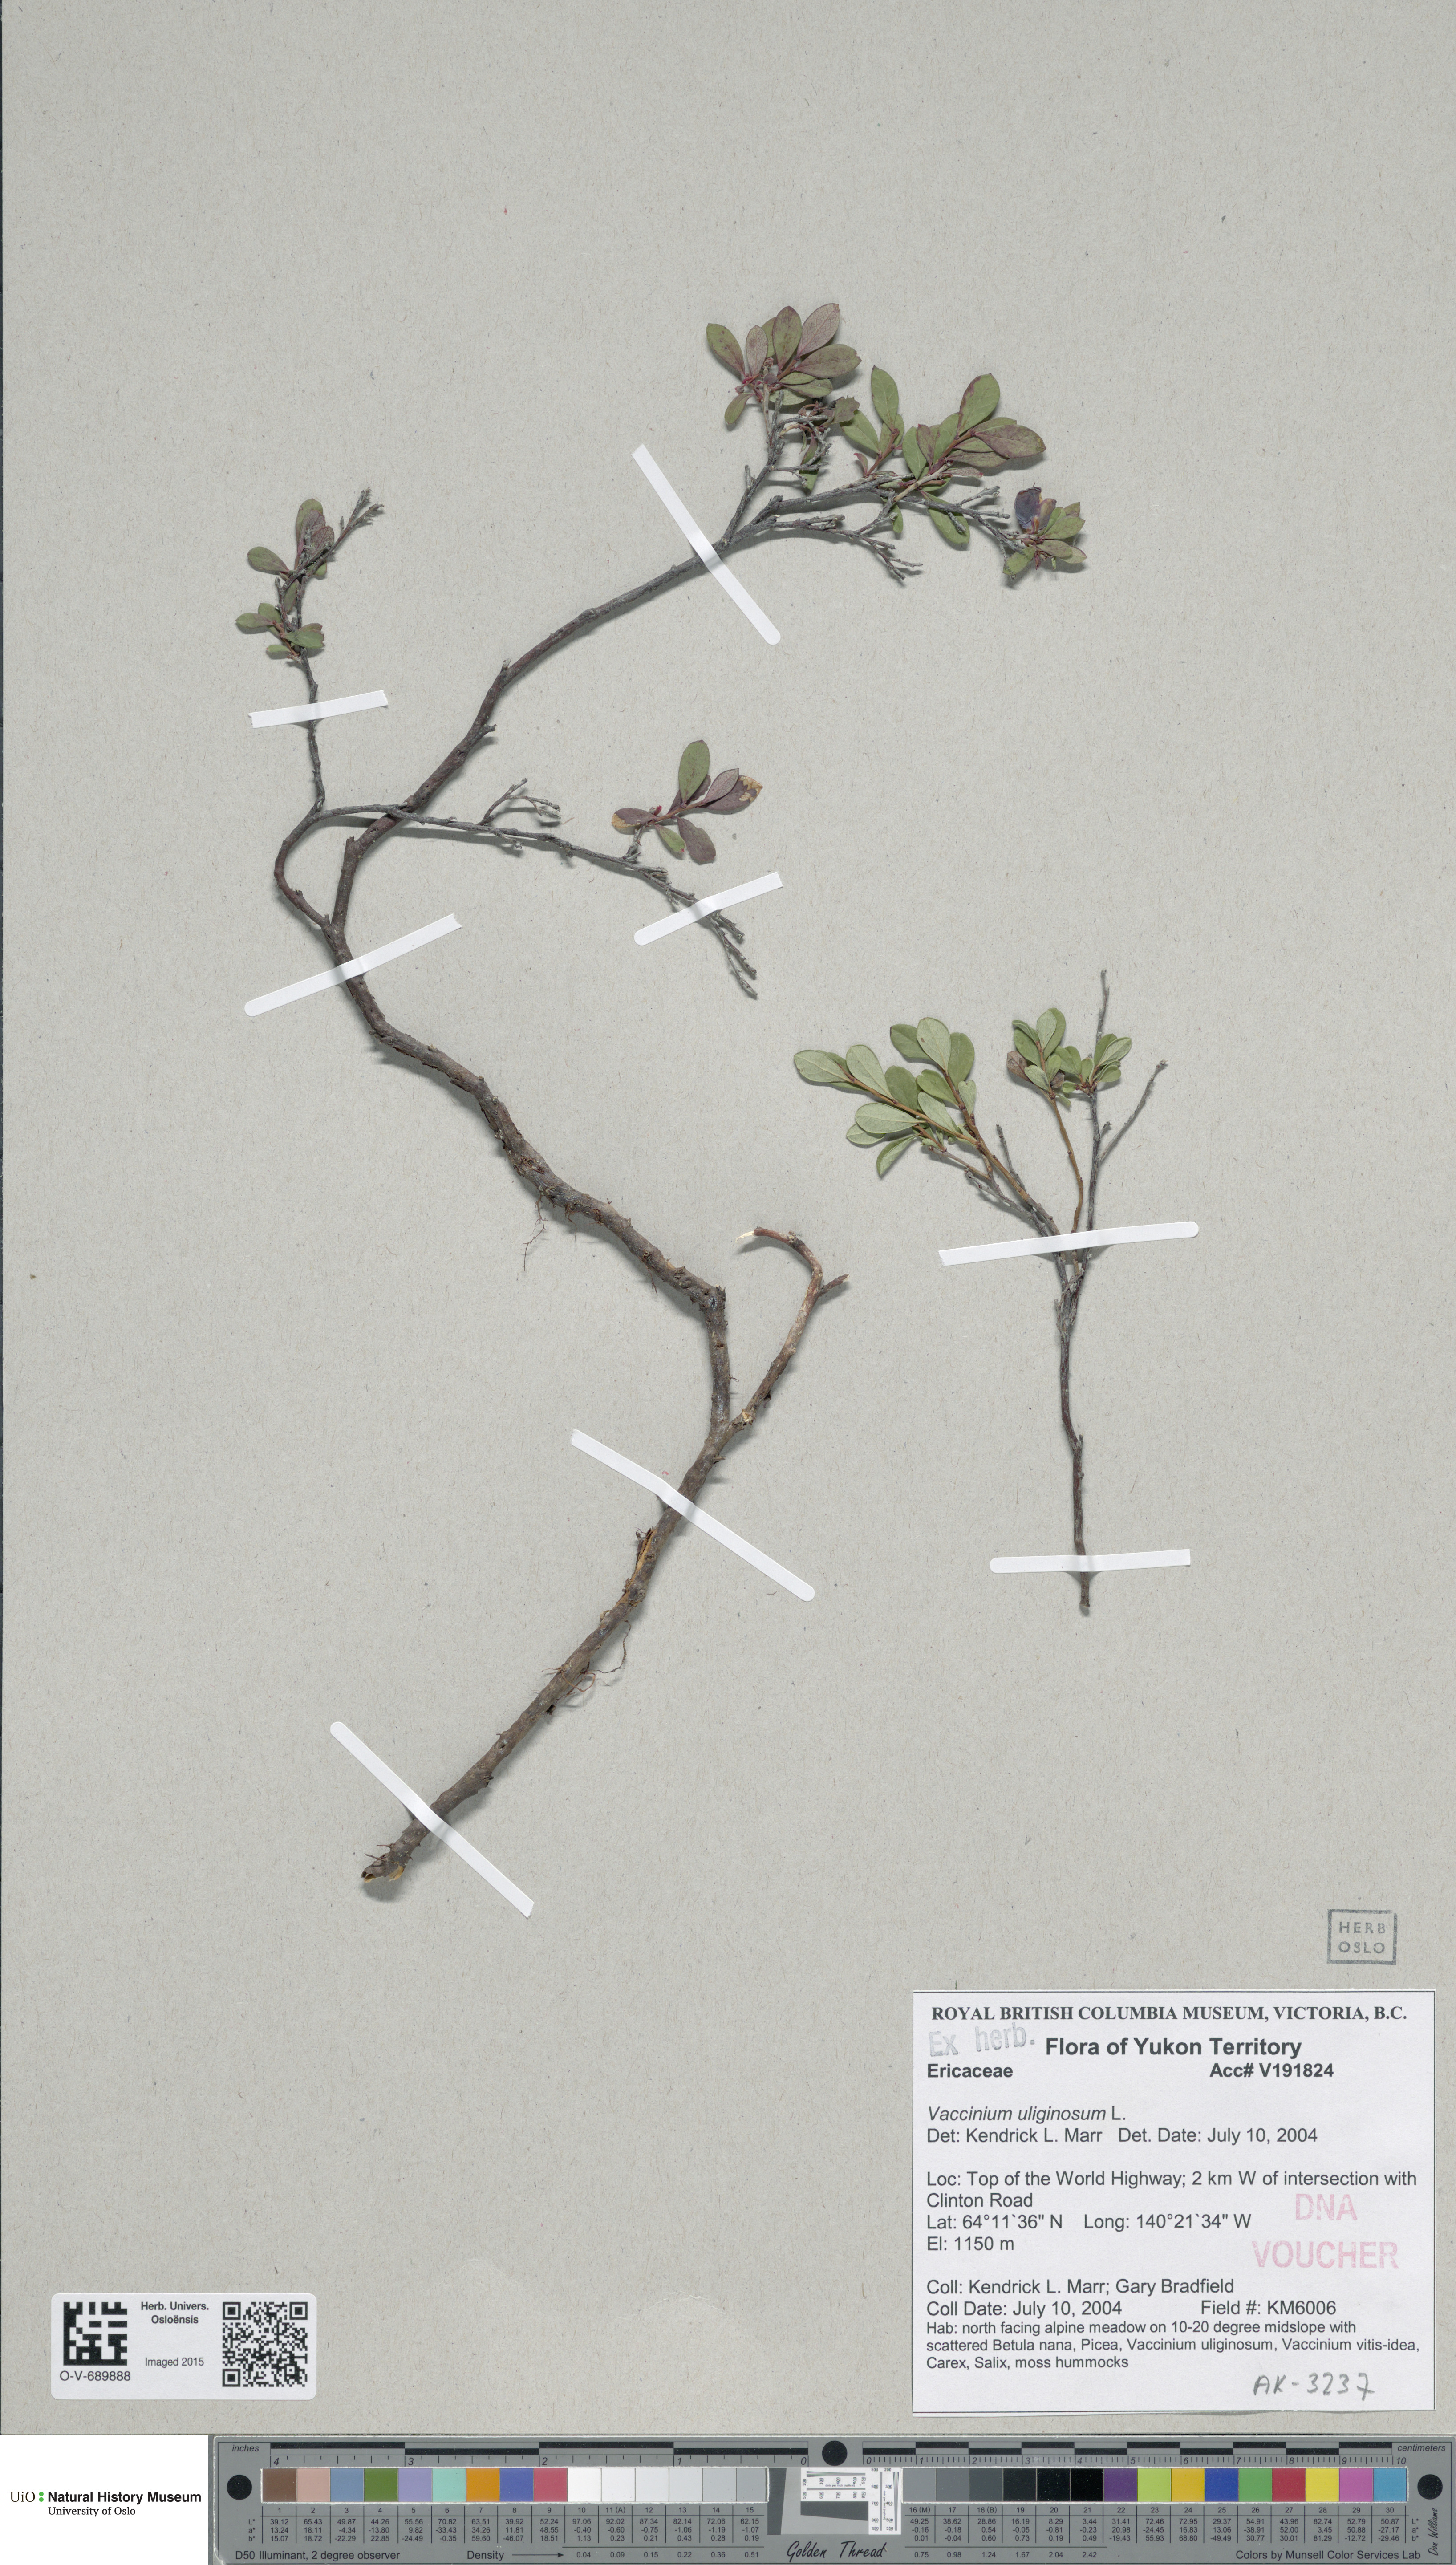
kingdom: Plantae
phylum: Tracheophyta
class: Magnoliopsida
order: Ericales
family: Ericaceae
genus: Vaccinium
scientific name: Vaccinium uliginosum
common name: Bog bilberry
